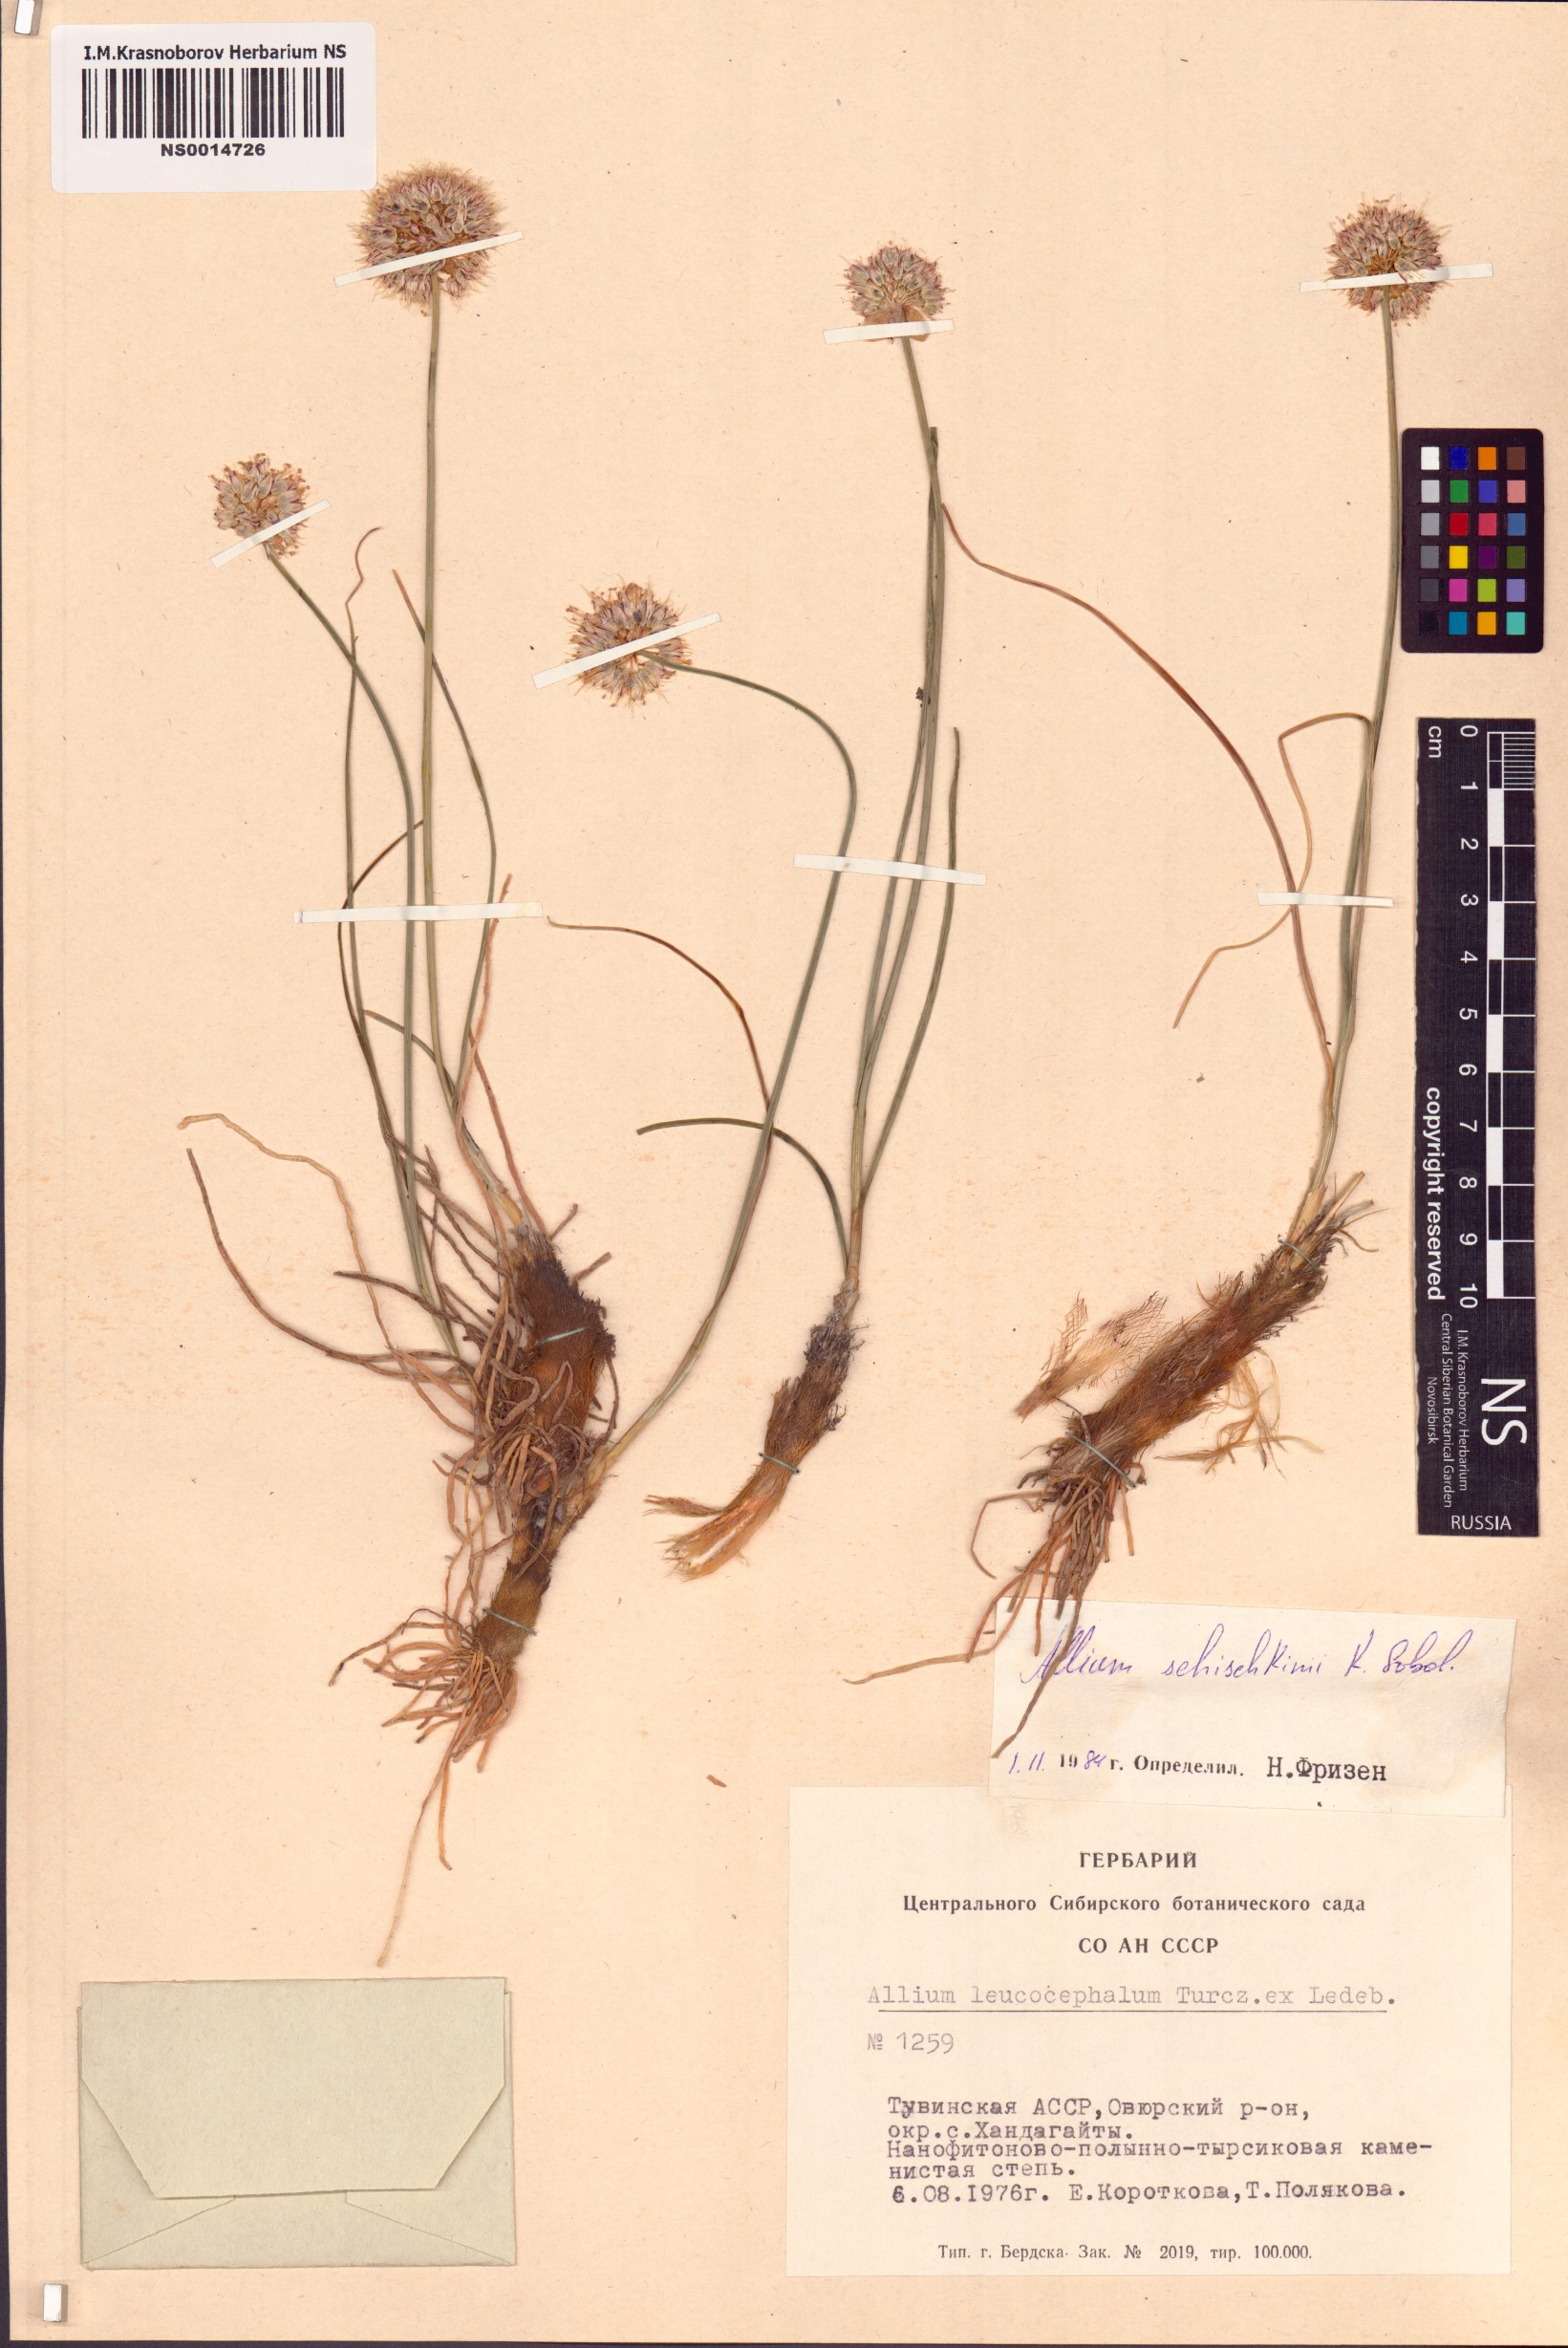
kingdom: Plantae
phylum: Tracheophyta
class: Liliopsida
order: Asparagales
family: Amaryllidaceae
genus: Allium
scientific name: Allium schischkinii
